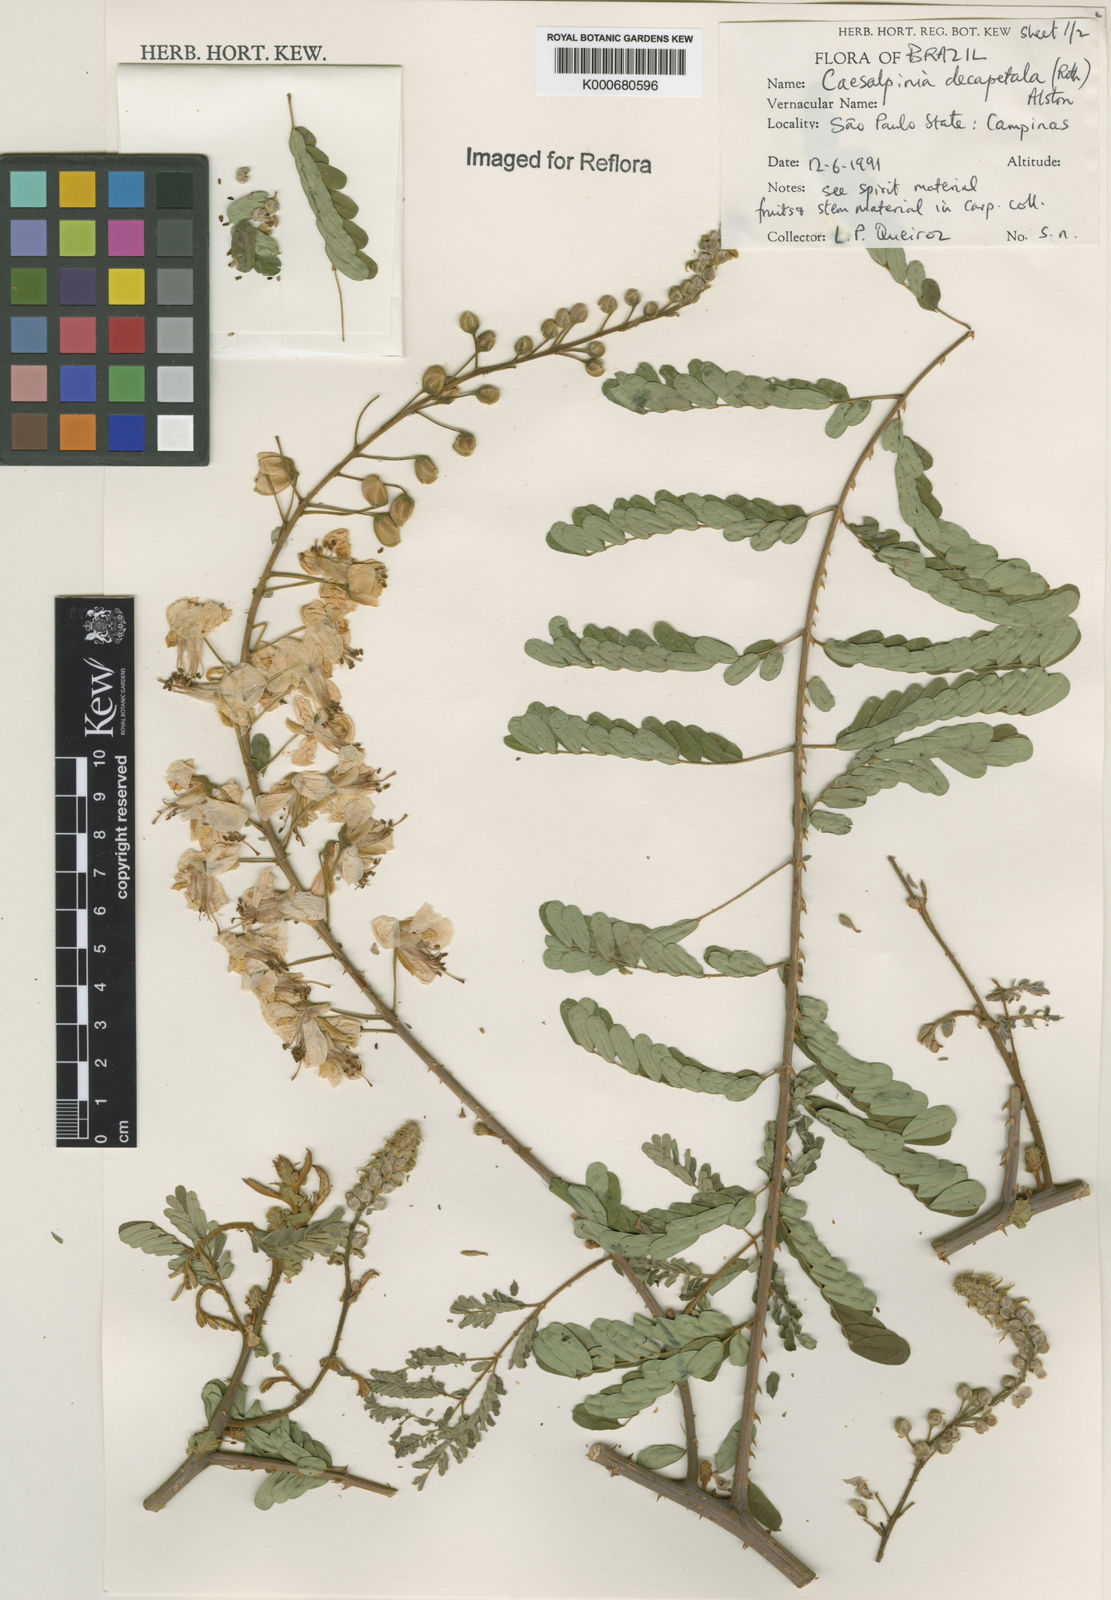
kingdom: Plantae
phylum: Tracheophyta
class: Magnoliopsida
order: Fabales
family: Fabaceae
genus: Biancaea
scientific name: Biancaea decapetala
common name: Cat's claw
